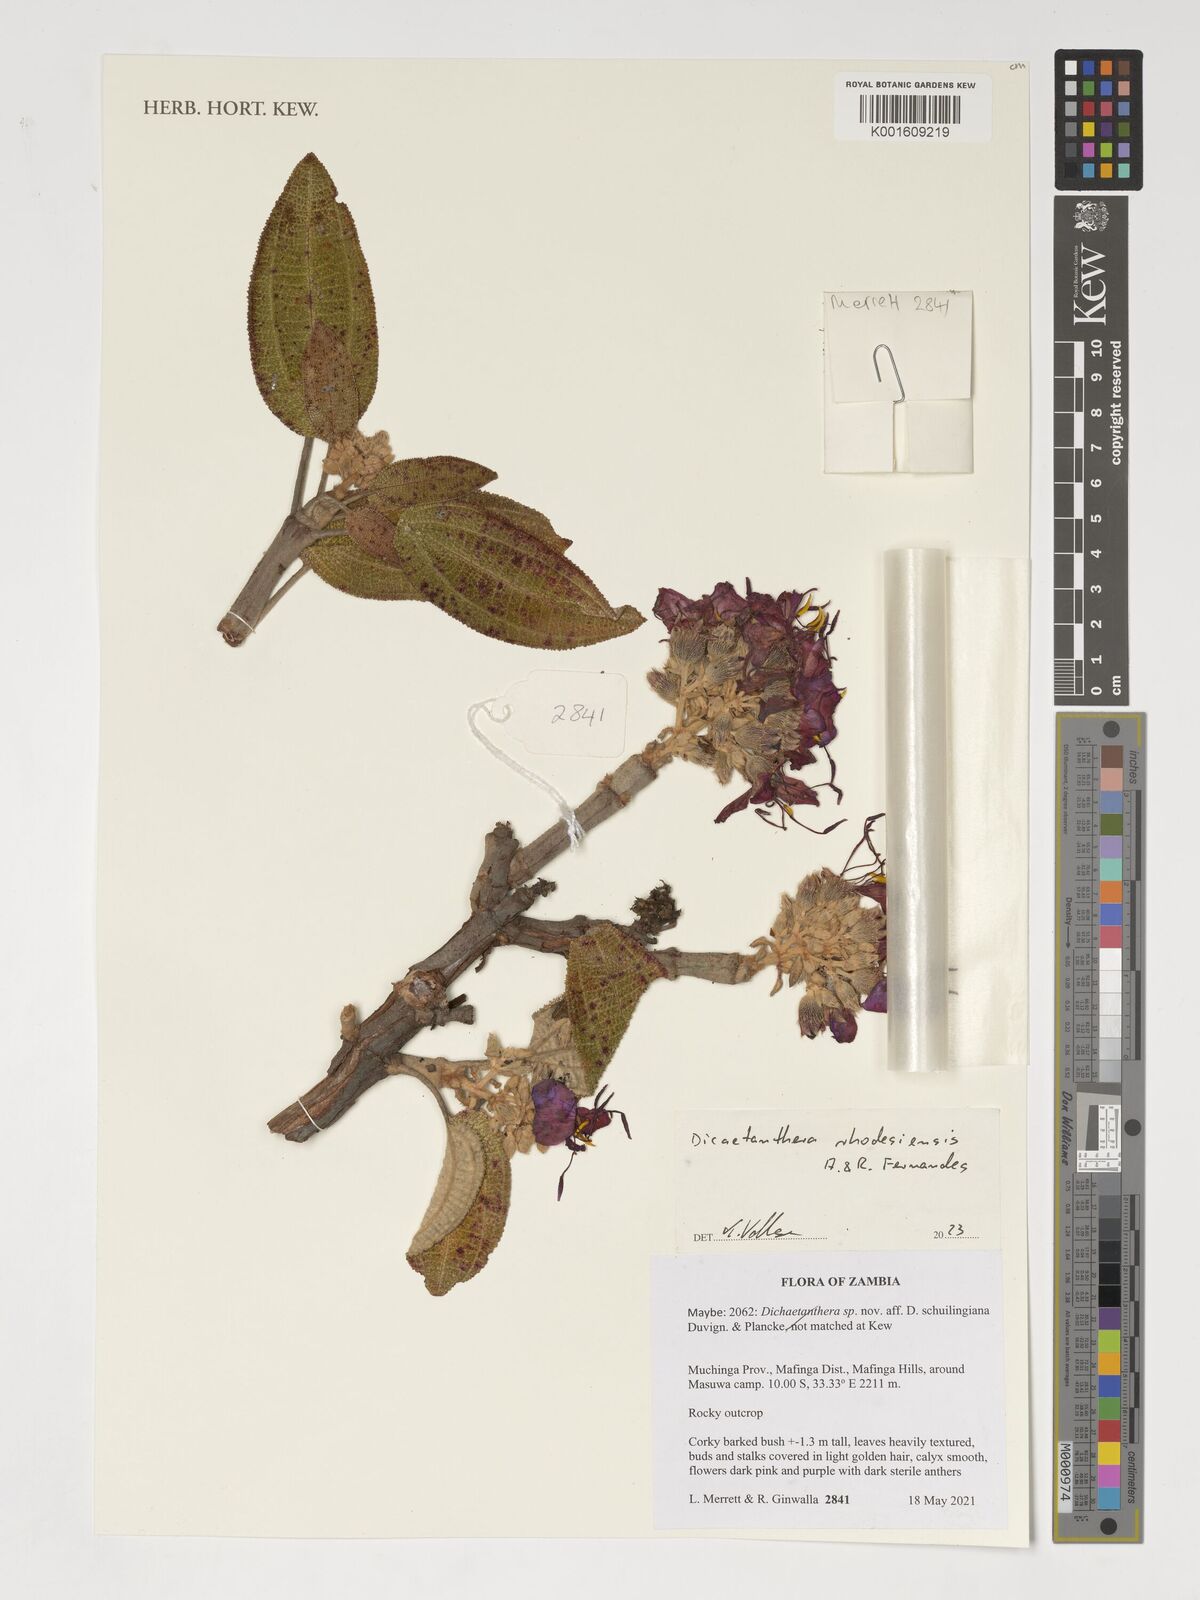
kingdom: Plantae
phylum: Tracheophyta
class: Magnoliopsida
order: Myrtales
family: Melastomataceae
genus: Dichaetanthera
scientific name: Dichaetanthera rhodesiensis
